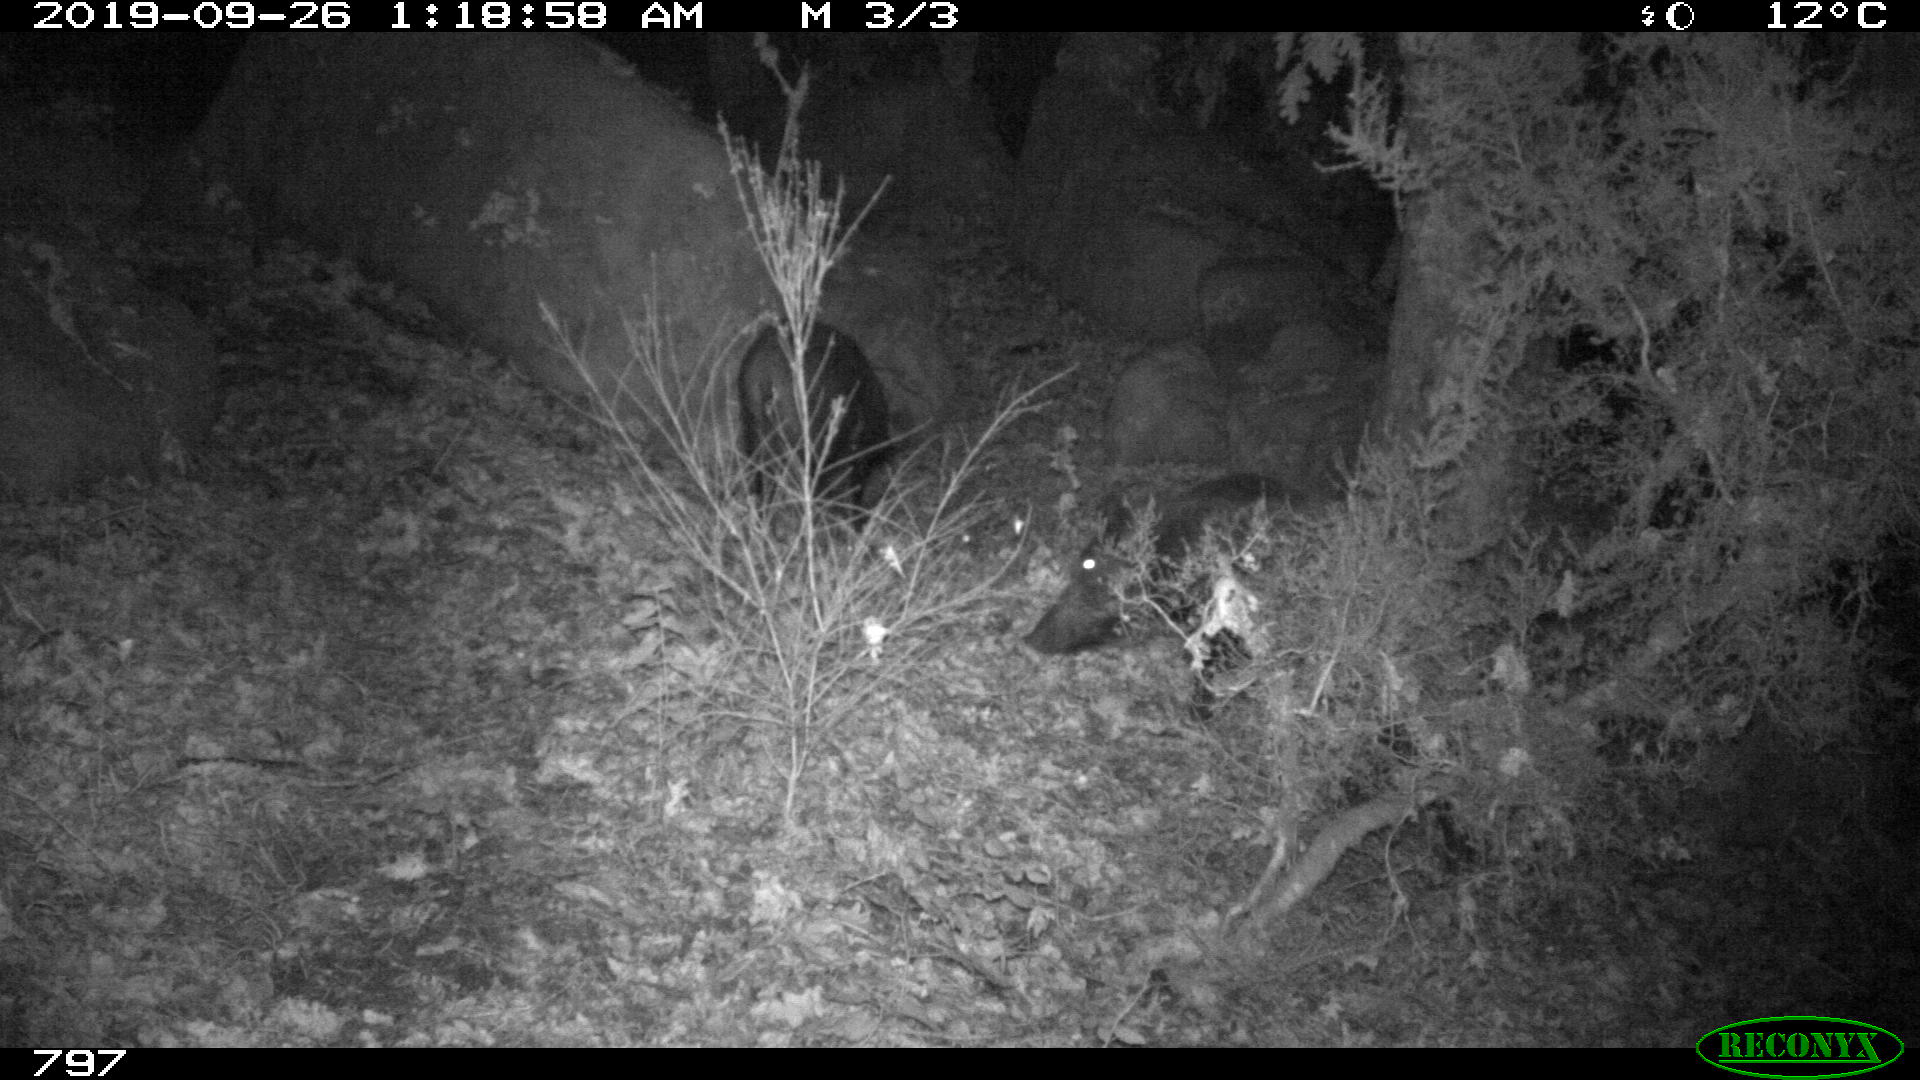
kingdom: Animalia
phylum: Chordata
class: Mammalia
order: Artiodactyla
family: Suidae
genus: Sus
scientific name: Sus scrofa
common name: Wild boar
